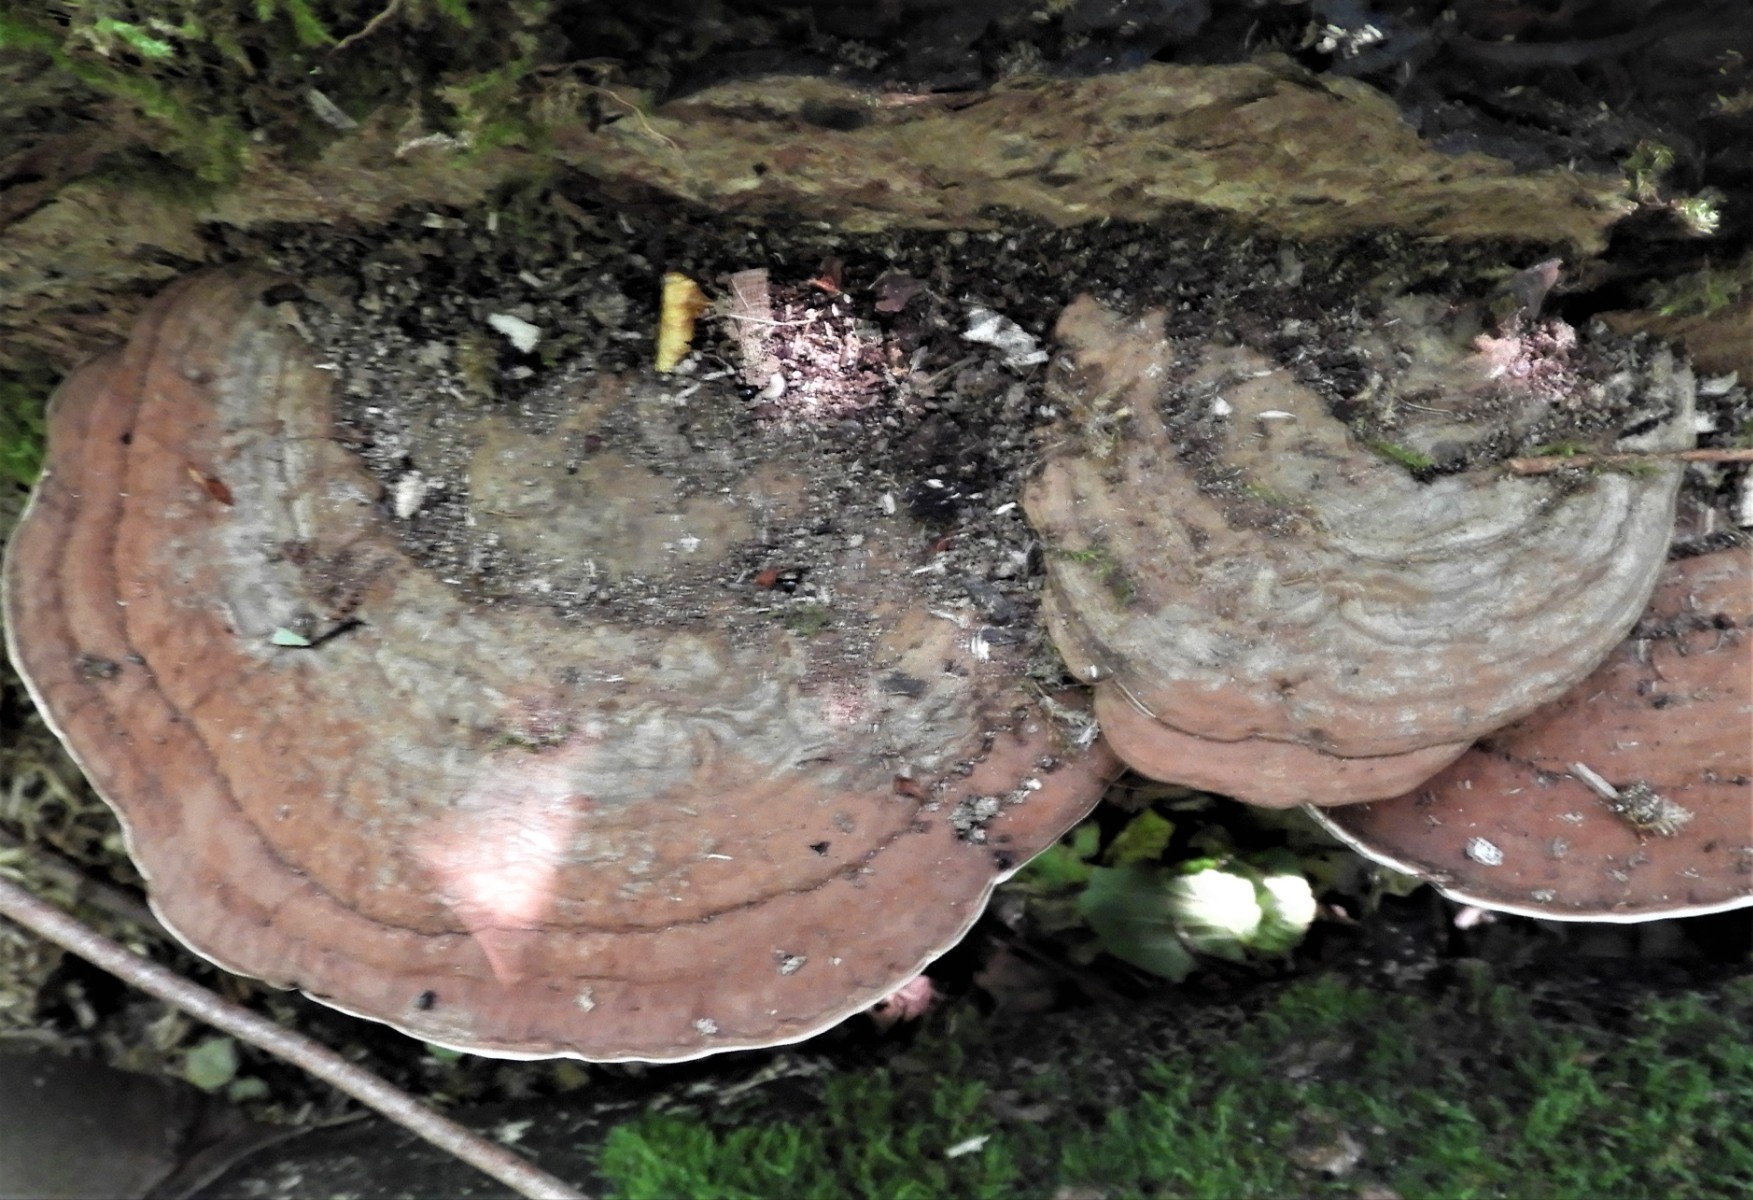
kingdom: Fungi
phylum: Basidiomycota
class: Agaricomycetes
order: Polyporales
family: Polyporaceae
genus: Ganoderma
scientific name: Ganoderma applanatum
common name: flad lakporesvamp
